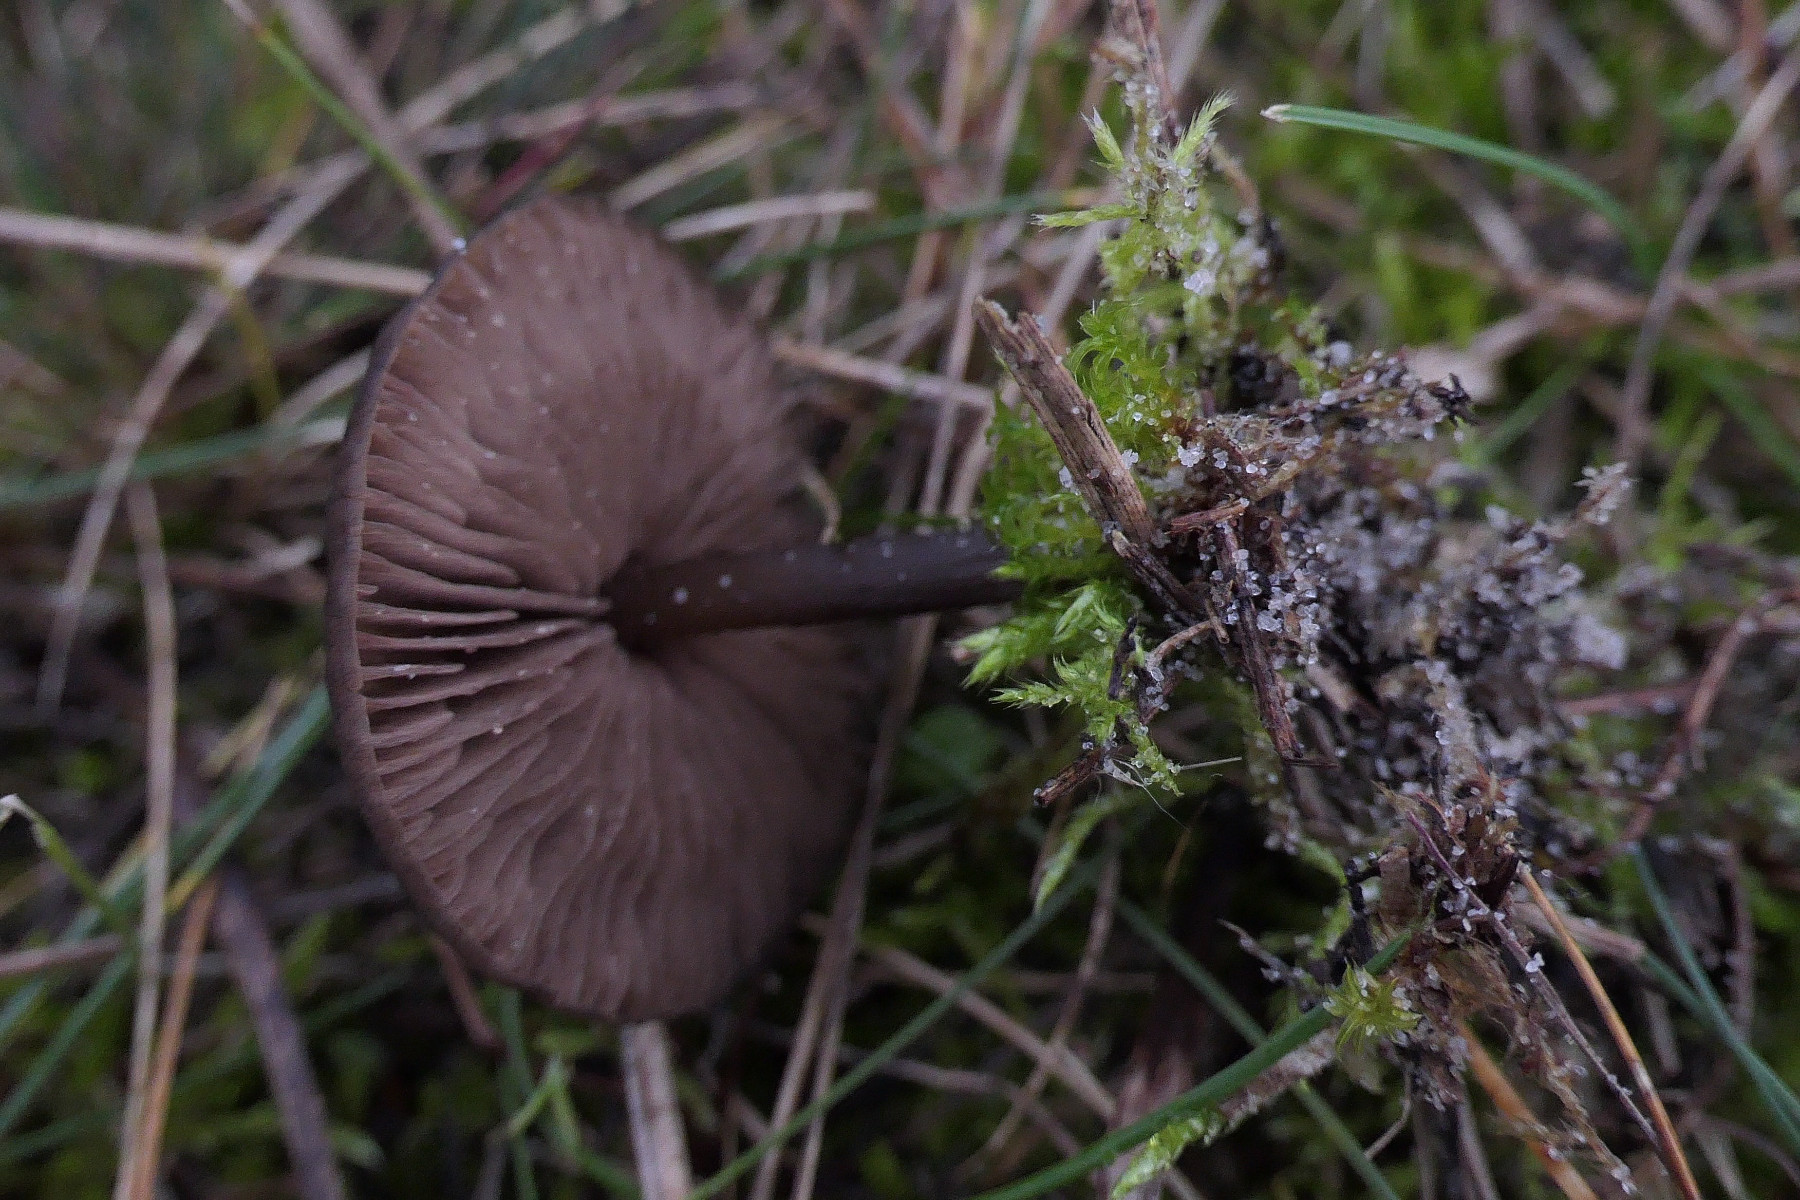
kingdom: Fungi
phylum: Basidiomycota
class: Agaricomycetes
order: Agaricales
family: Entolomataceae
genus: Entoloma
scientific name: Entoloma sericeum
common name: silkeglinsende rødblad
